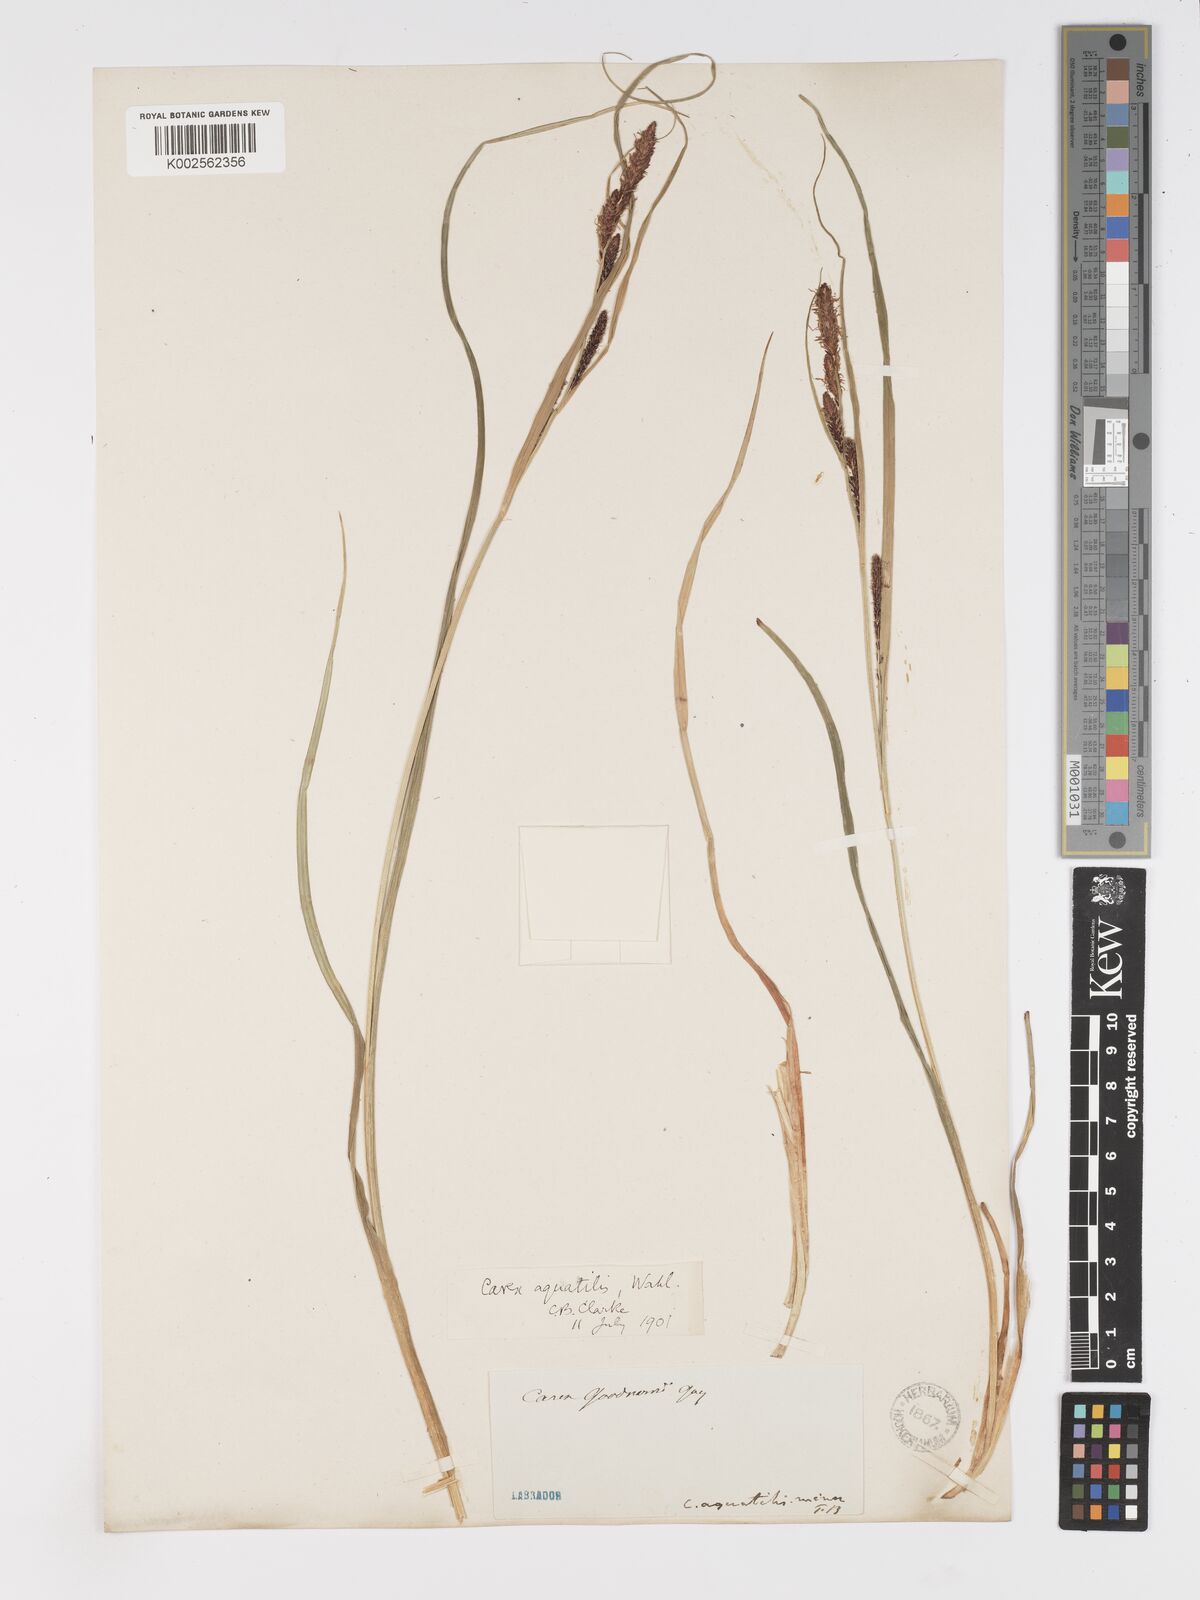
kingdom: Plantae
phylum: Tracheophyta
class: Liliopsida
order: Poales
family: Cyperaceae
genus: Carex
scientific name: Carex aquatilis
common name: Water sedge
